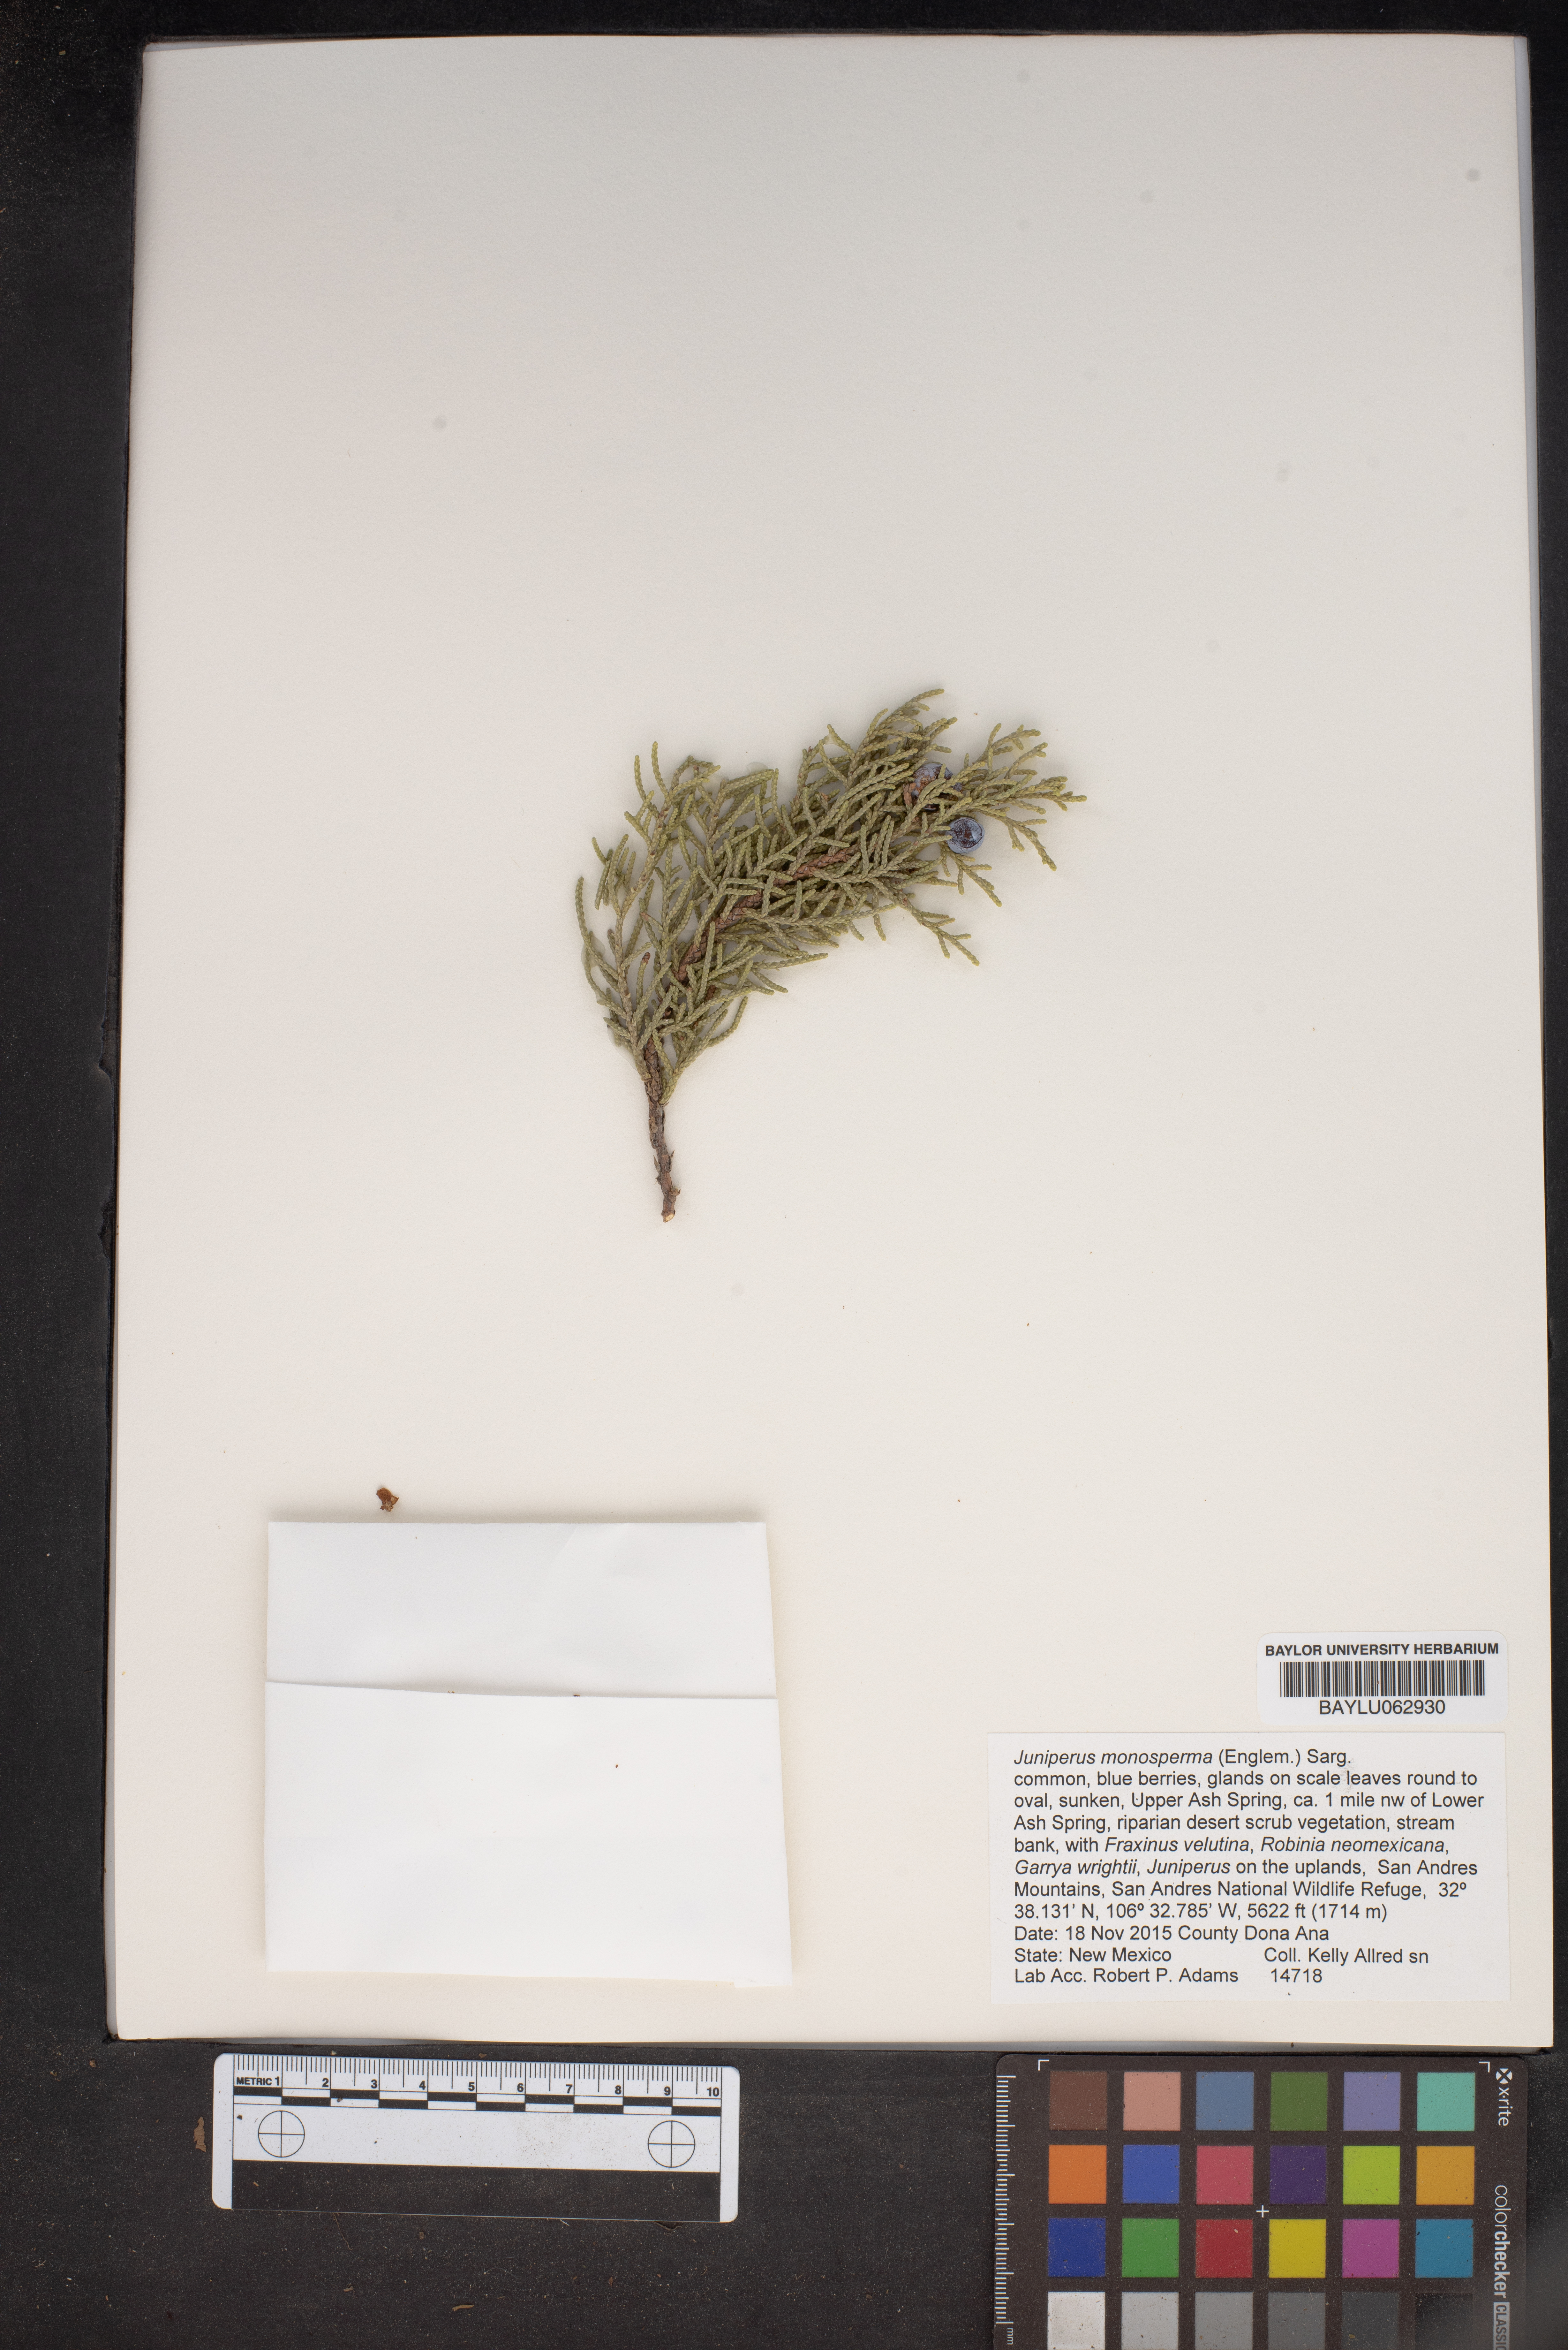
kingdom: Plantae
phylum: Tracheophyta
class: Pinopsida
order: Pinales
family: Cupressaceae
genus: Juniperus
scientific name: Juniperus monosperma
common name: One-seed juniper
